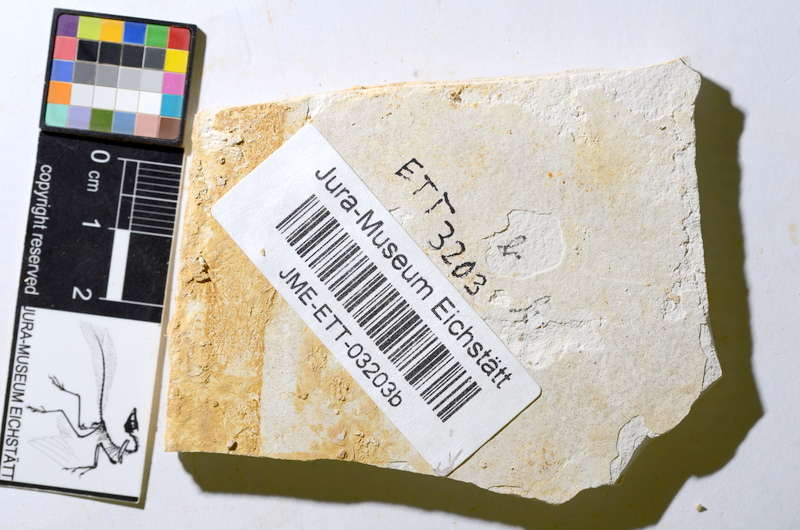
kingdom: Animalia
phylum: Chordata
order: Salmoniformes
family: Orthogonikleithridae
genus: Orthogonikleithrus
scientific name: Orthogonikleithrus hoelli
